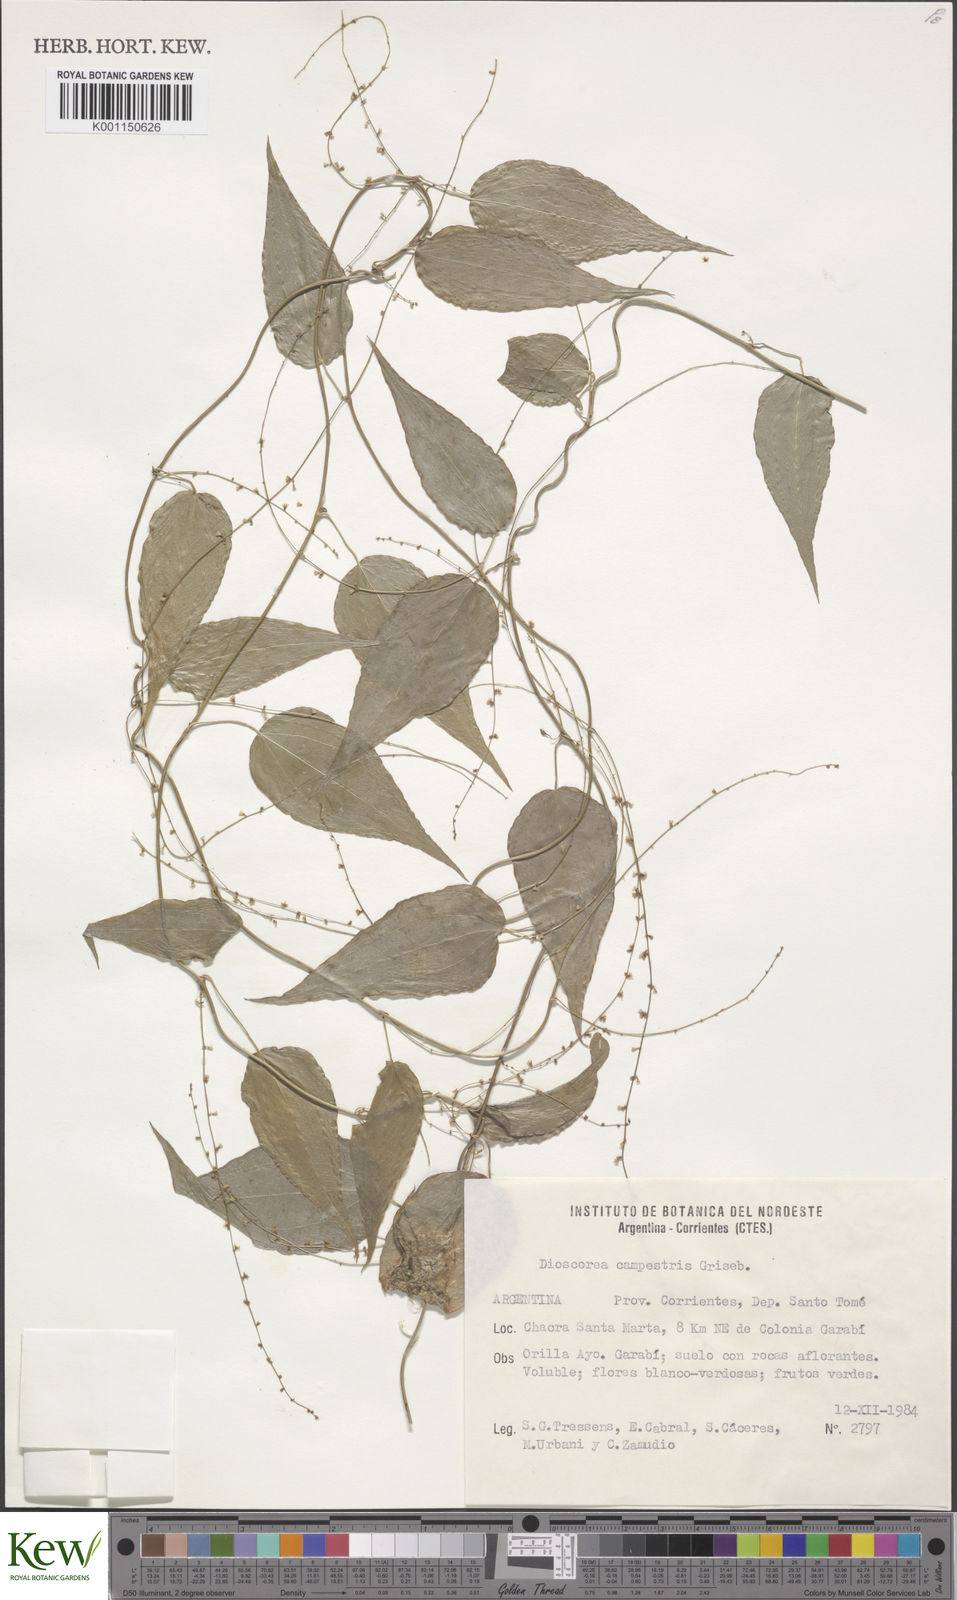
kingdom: Plantae
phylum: Tracheophyta
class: Liliopsida
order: Dioscoreales
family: Dioscoreaceae
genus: Dioscorea
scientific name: Dioscorea campestris
